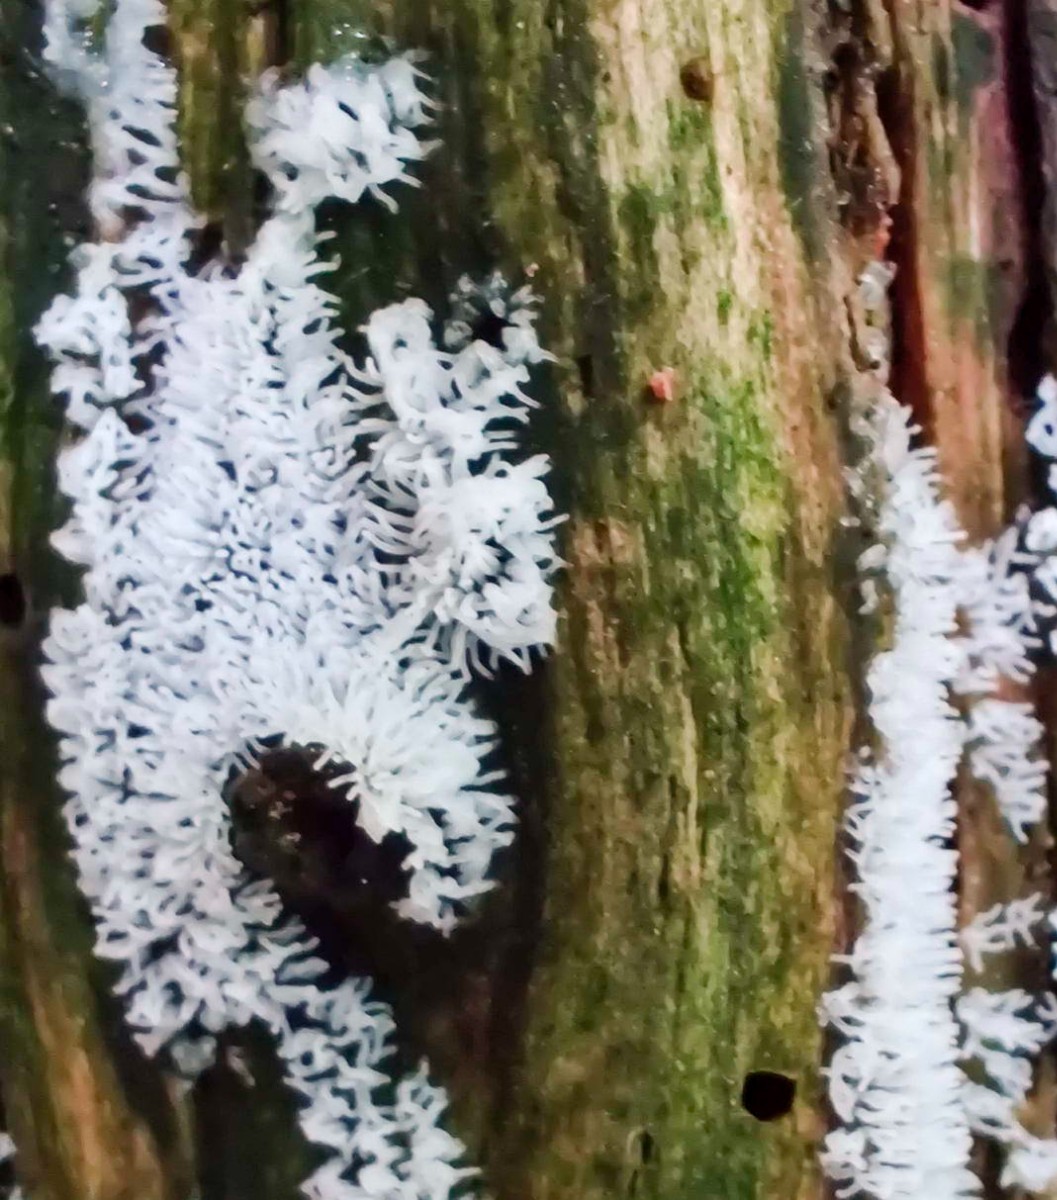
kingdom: Protozoa
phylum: Mycetozoa
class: Protosteliomycetes
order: Ceratiomyxales
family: Ceratiomyxaceae
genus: Ceratiomyxa
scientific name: Ceratiomyxa fruticulosa
